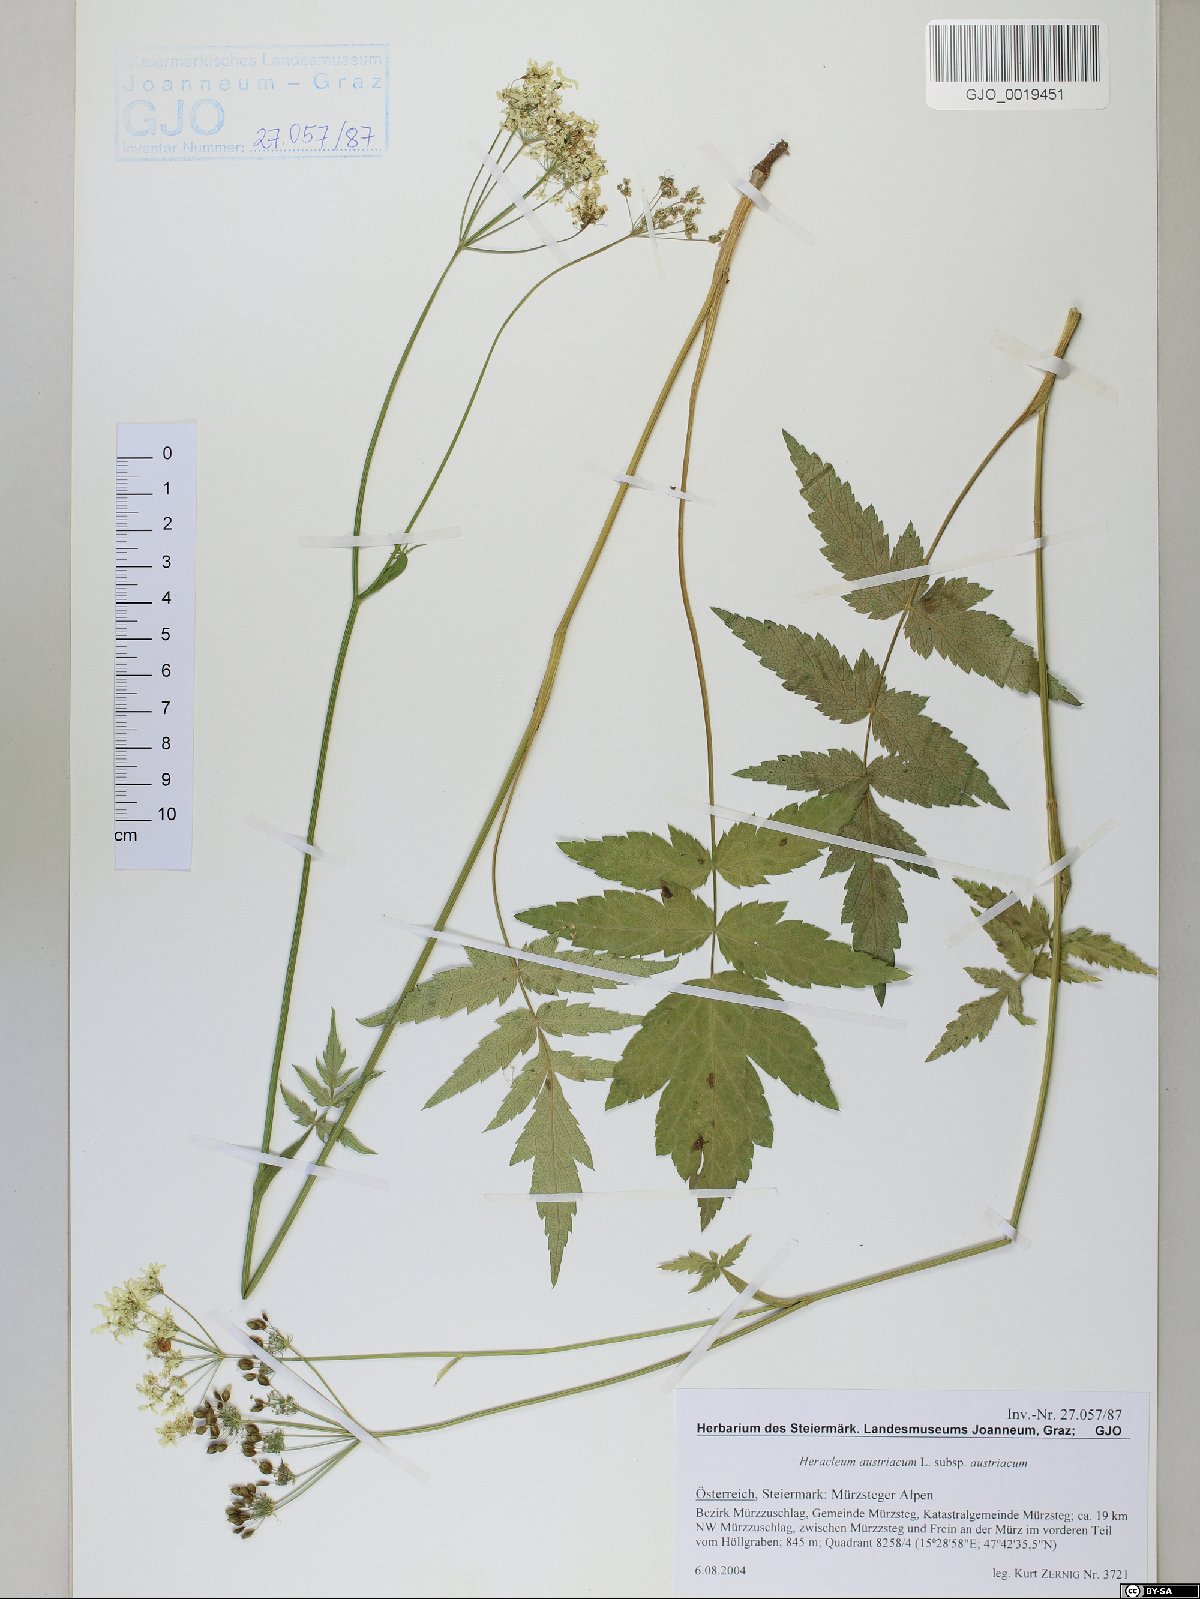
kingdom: Plantae
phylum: Tracheophyta
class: Magnoliopsida
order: Apiales
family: Apiaceae
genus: Heracleum
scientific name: Heracleum austriacum
